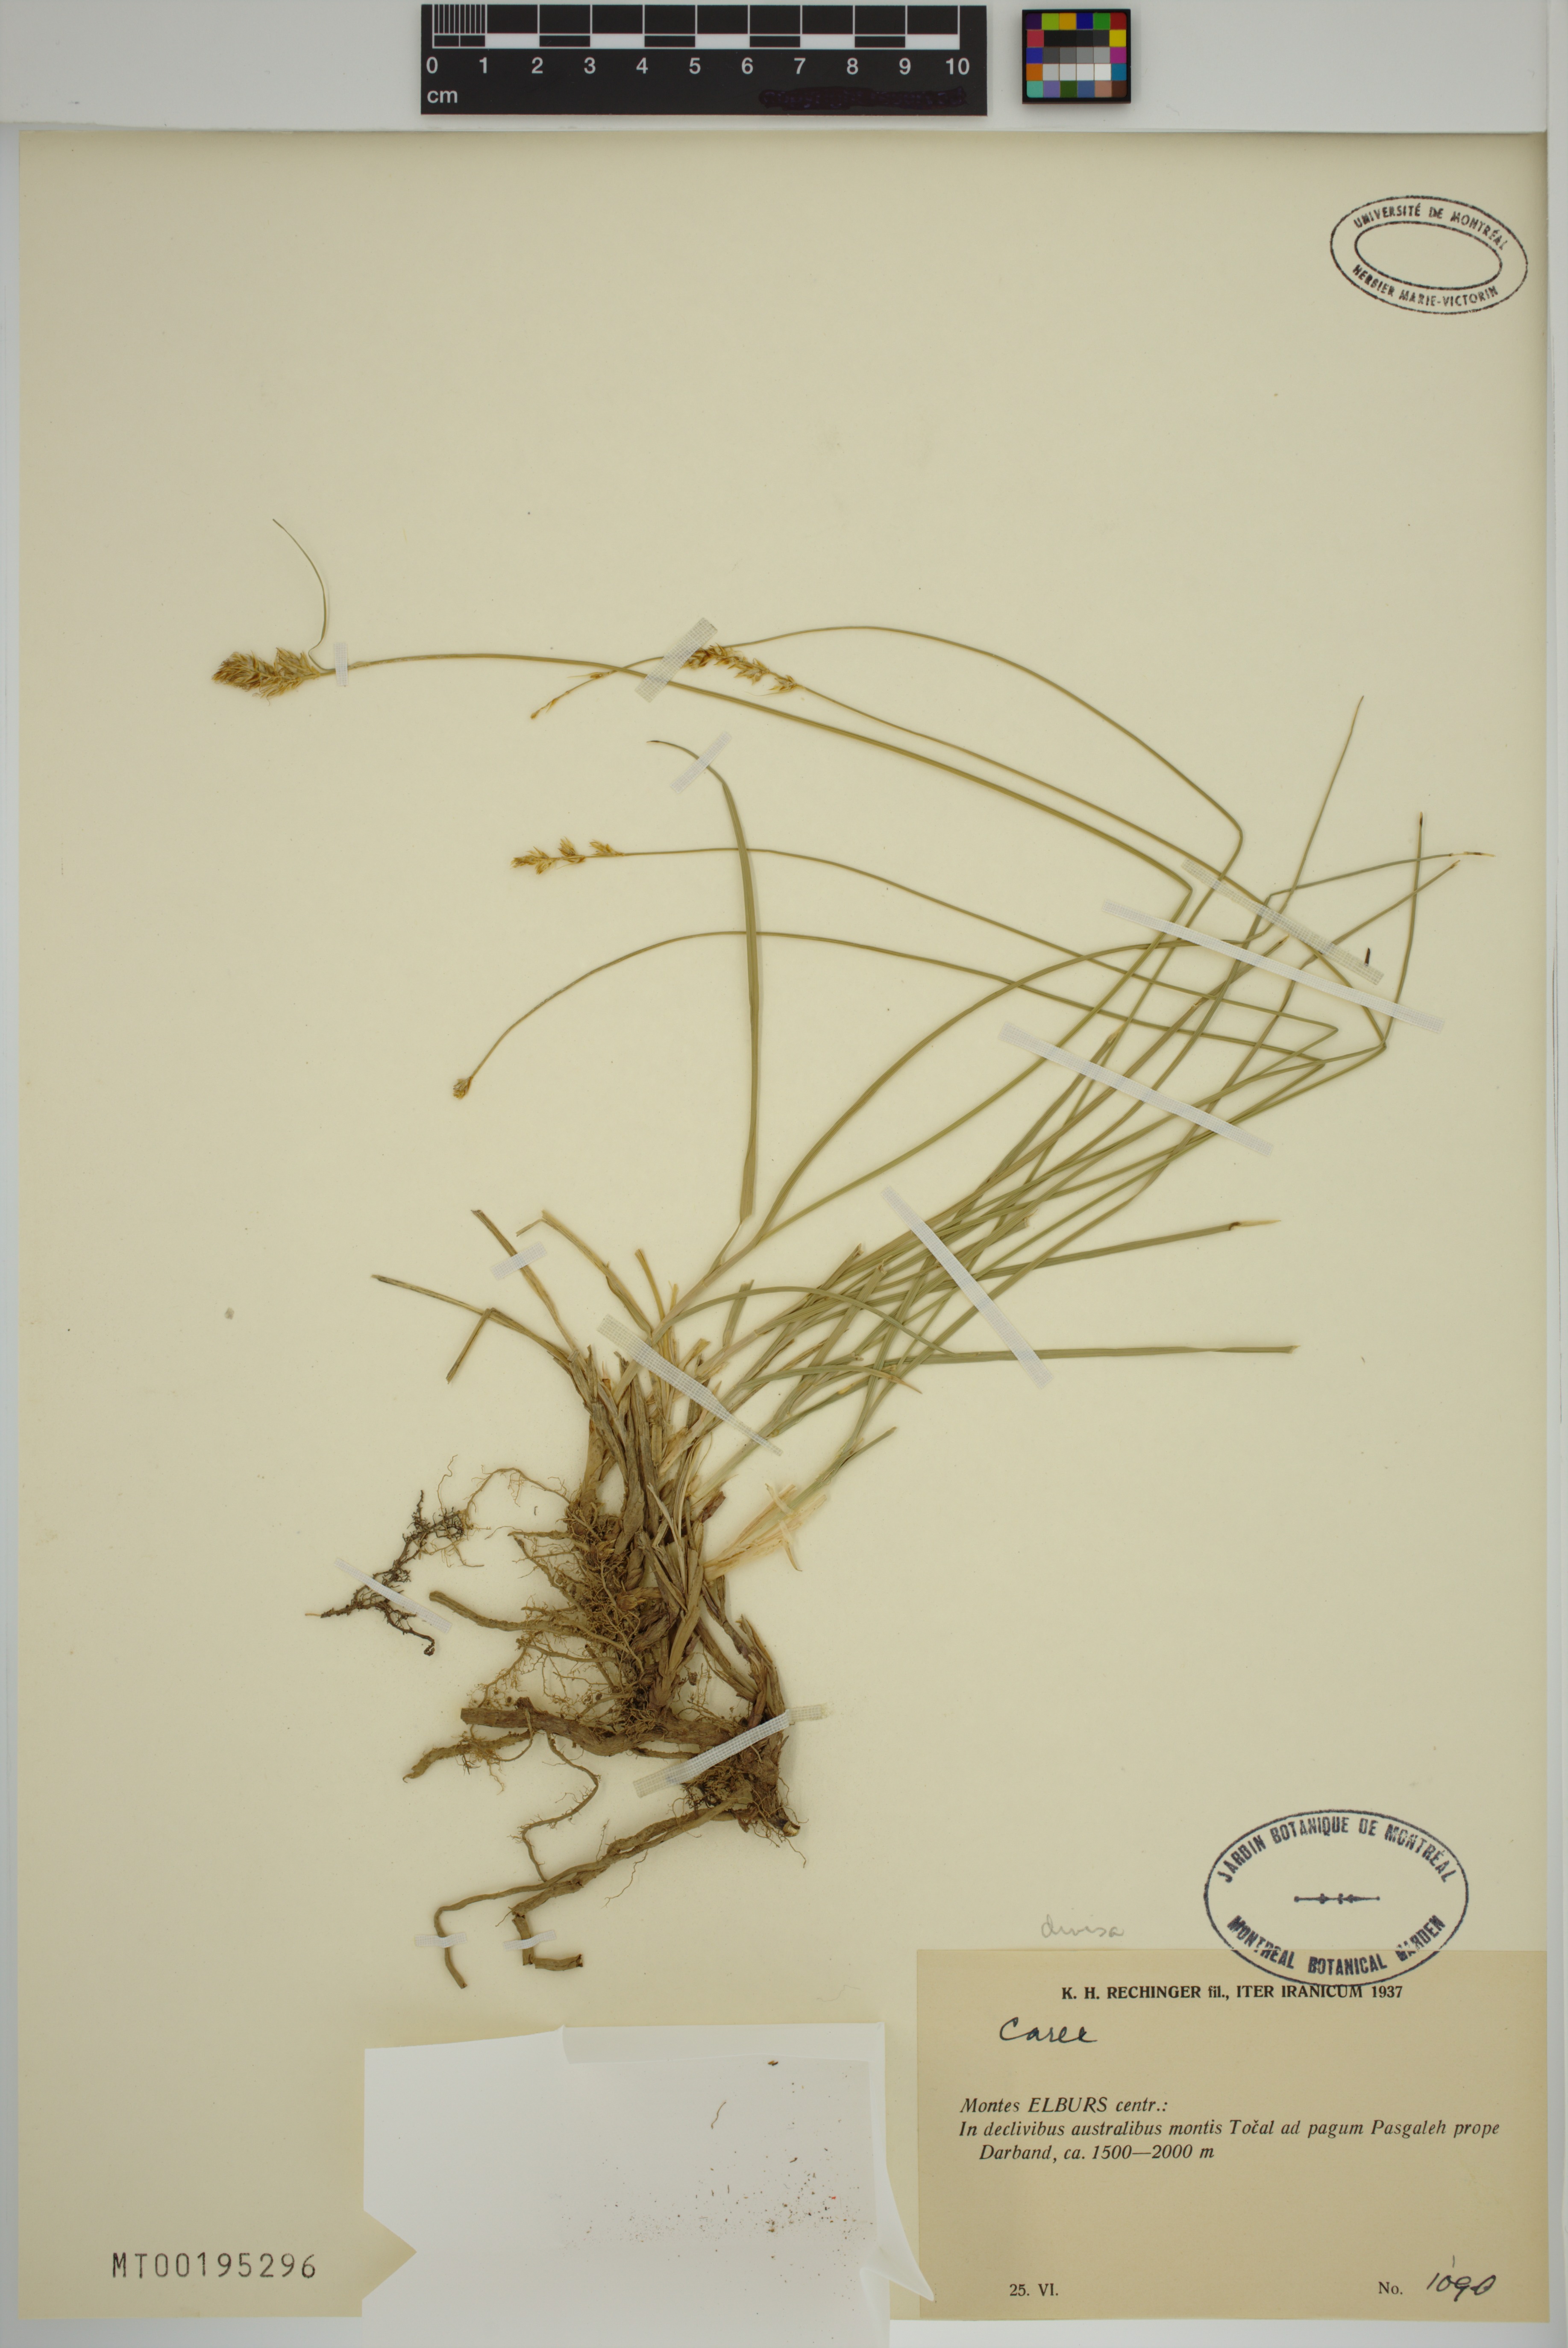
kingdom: Plantae
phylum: Tracheophyta
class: Liliopsida
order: Poales
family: Cyperaceae
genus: Carex
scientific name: Carex divisa
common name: Divided sedge
